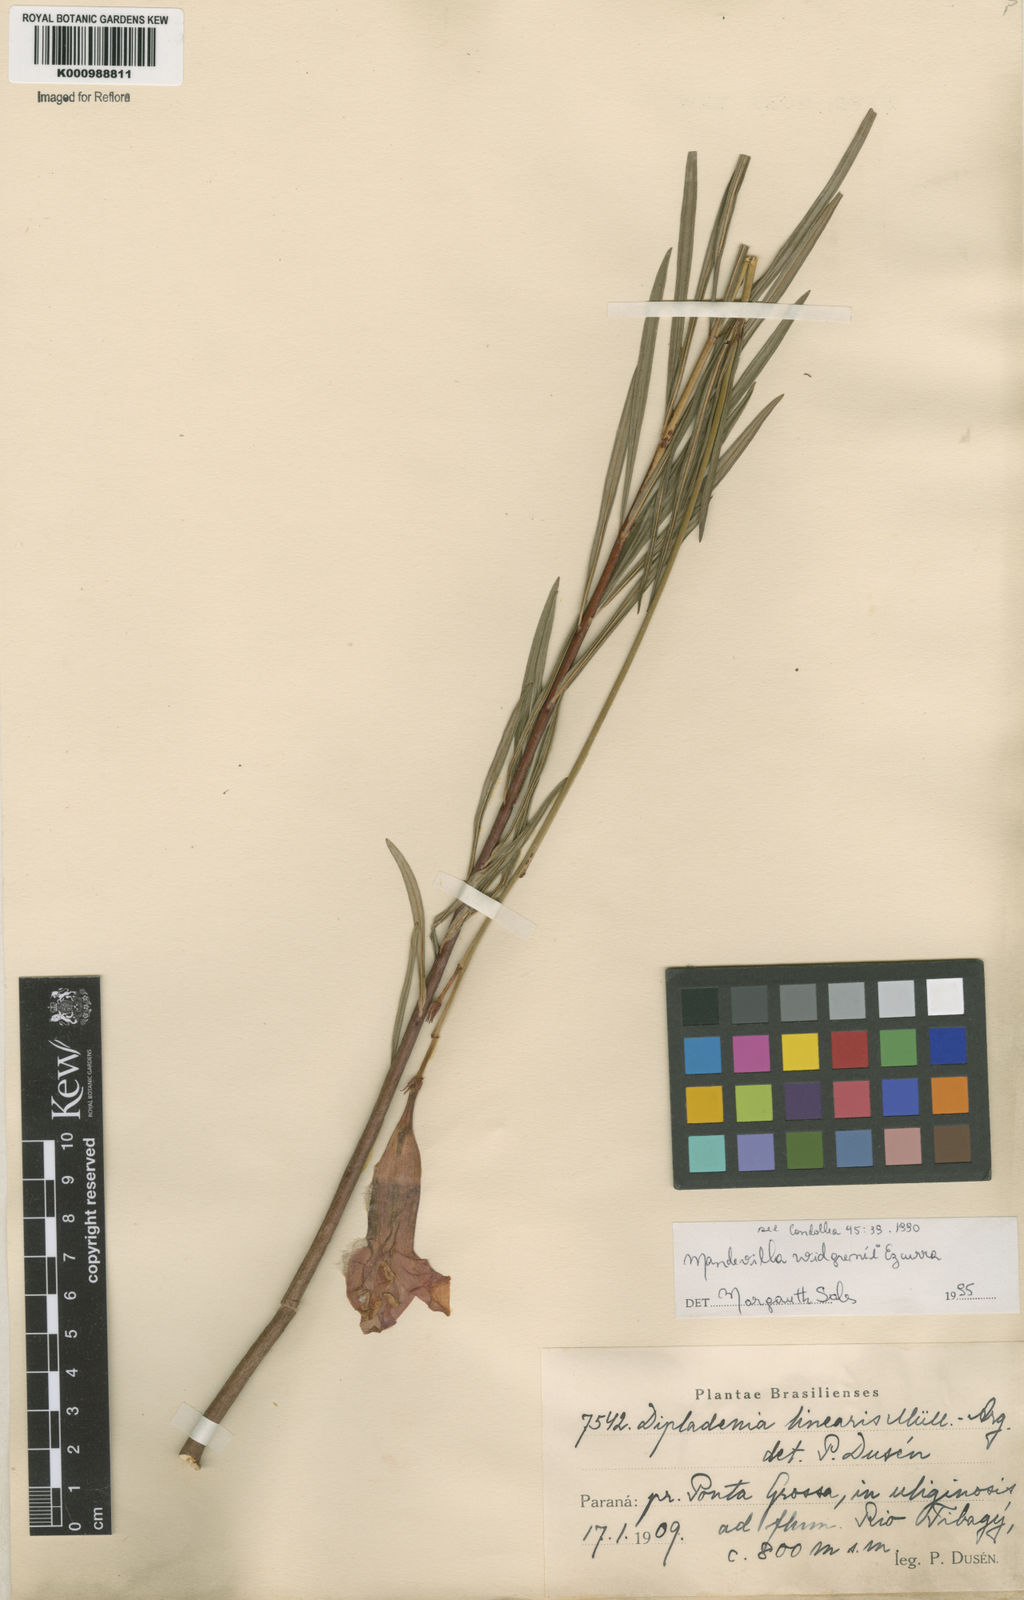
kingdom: Plantae
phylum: Tracheophyta
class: Magnoliopsida
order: Gentianales
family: Apocynaceae
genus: Mandevilla
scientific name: Mandevilla widgrenii
